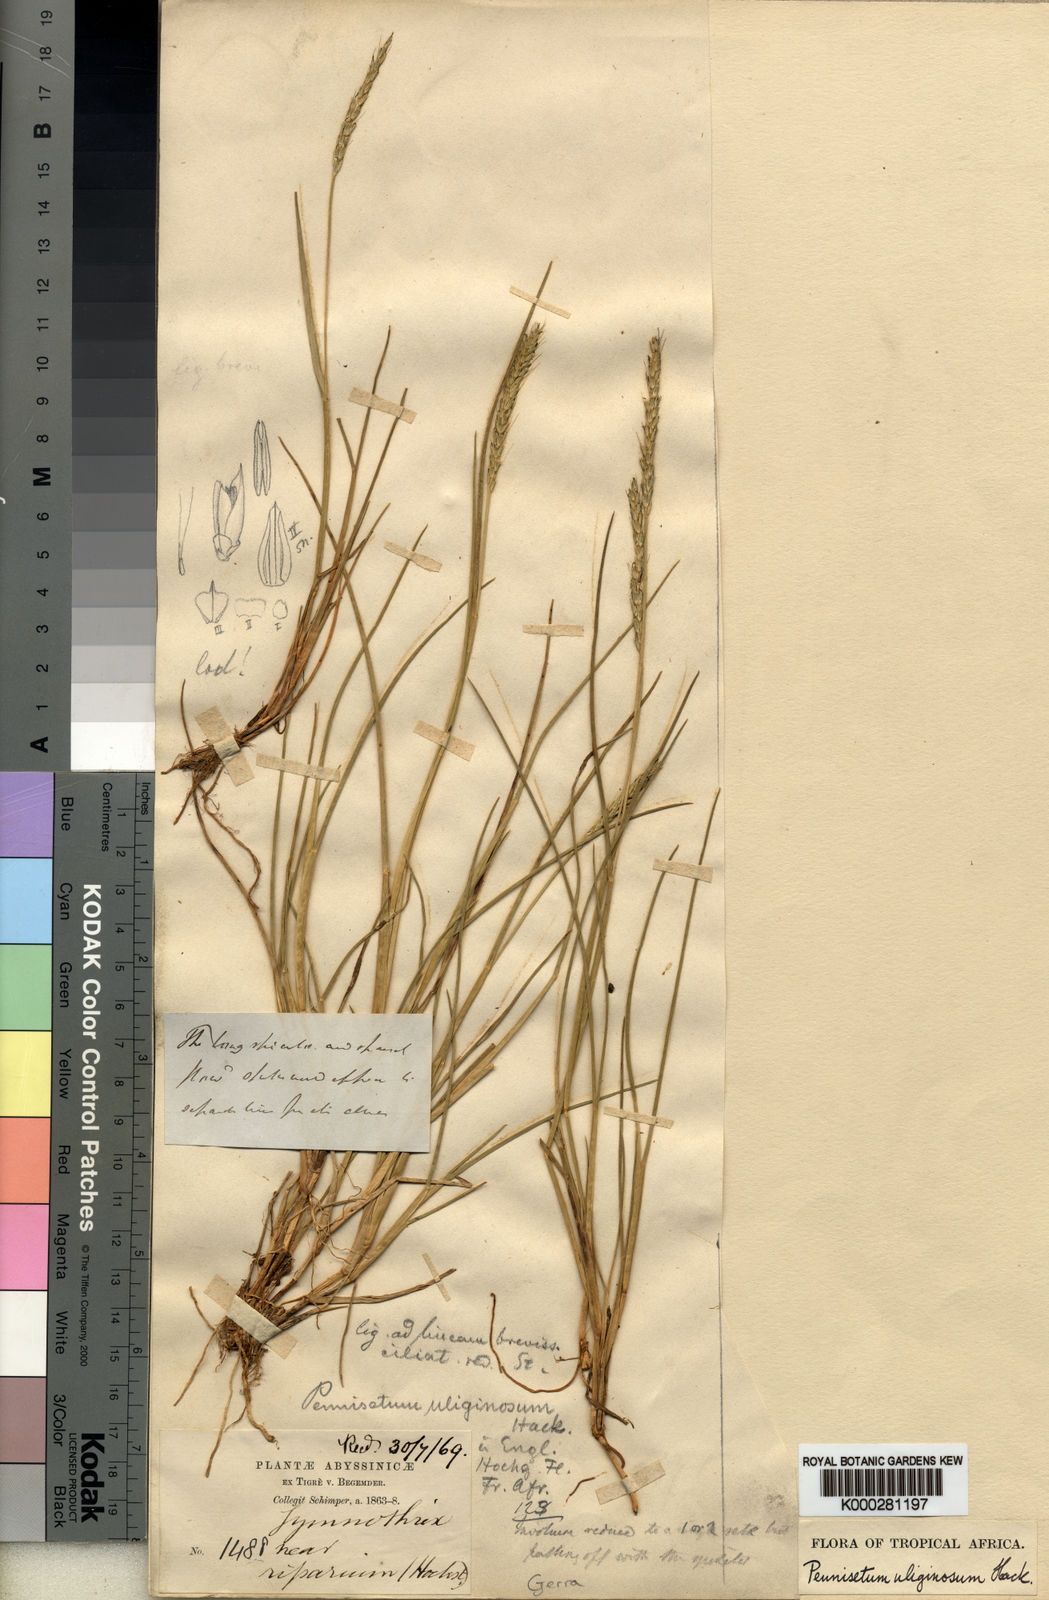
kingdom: Plantae
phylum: Tracheophyta
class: Liliopsida
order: Poales
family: Poaceae
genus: Cenchrus
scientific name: Cenchrus Pennisetum spec
